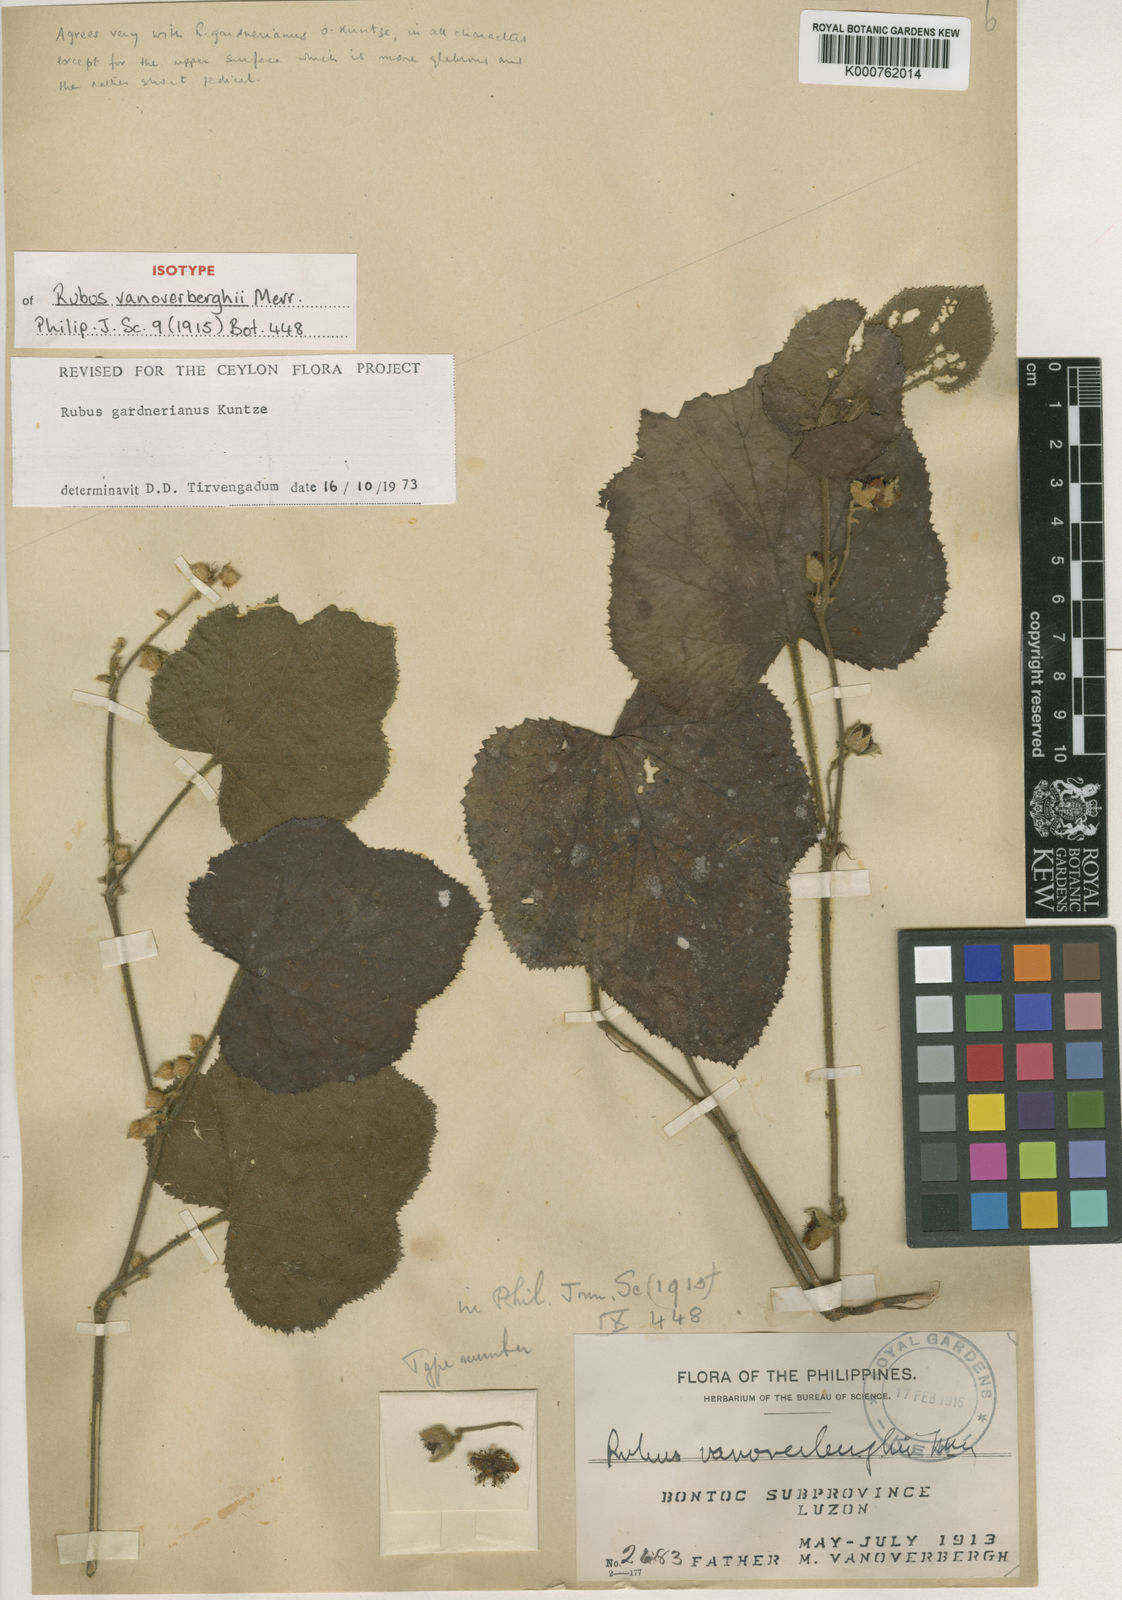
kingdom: Plantae
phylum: Tracheophyta
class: Magnoliopsida
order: Rosales
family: Rosaceae
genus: Rubus
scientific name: Rubus glomeratus
